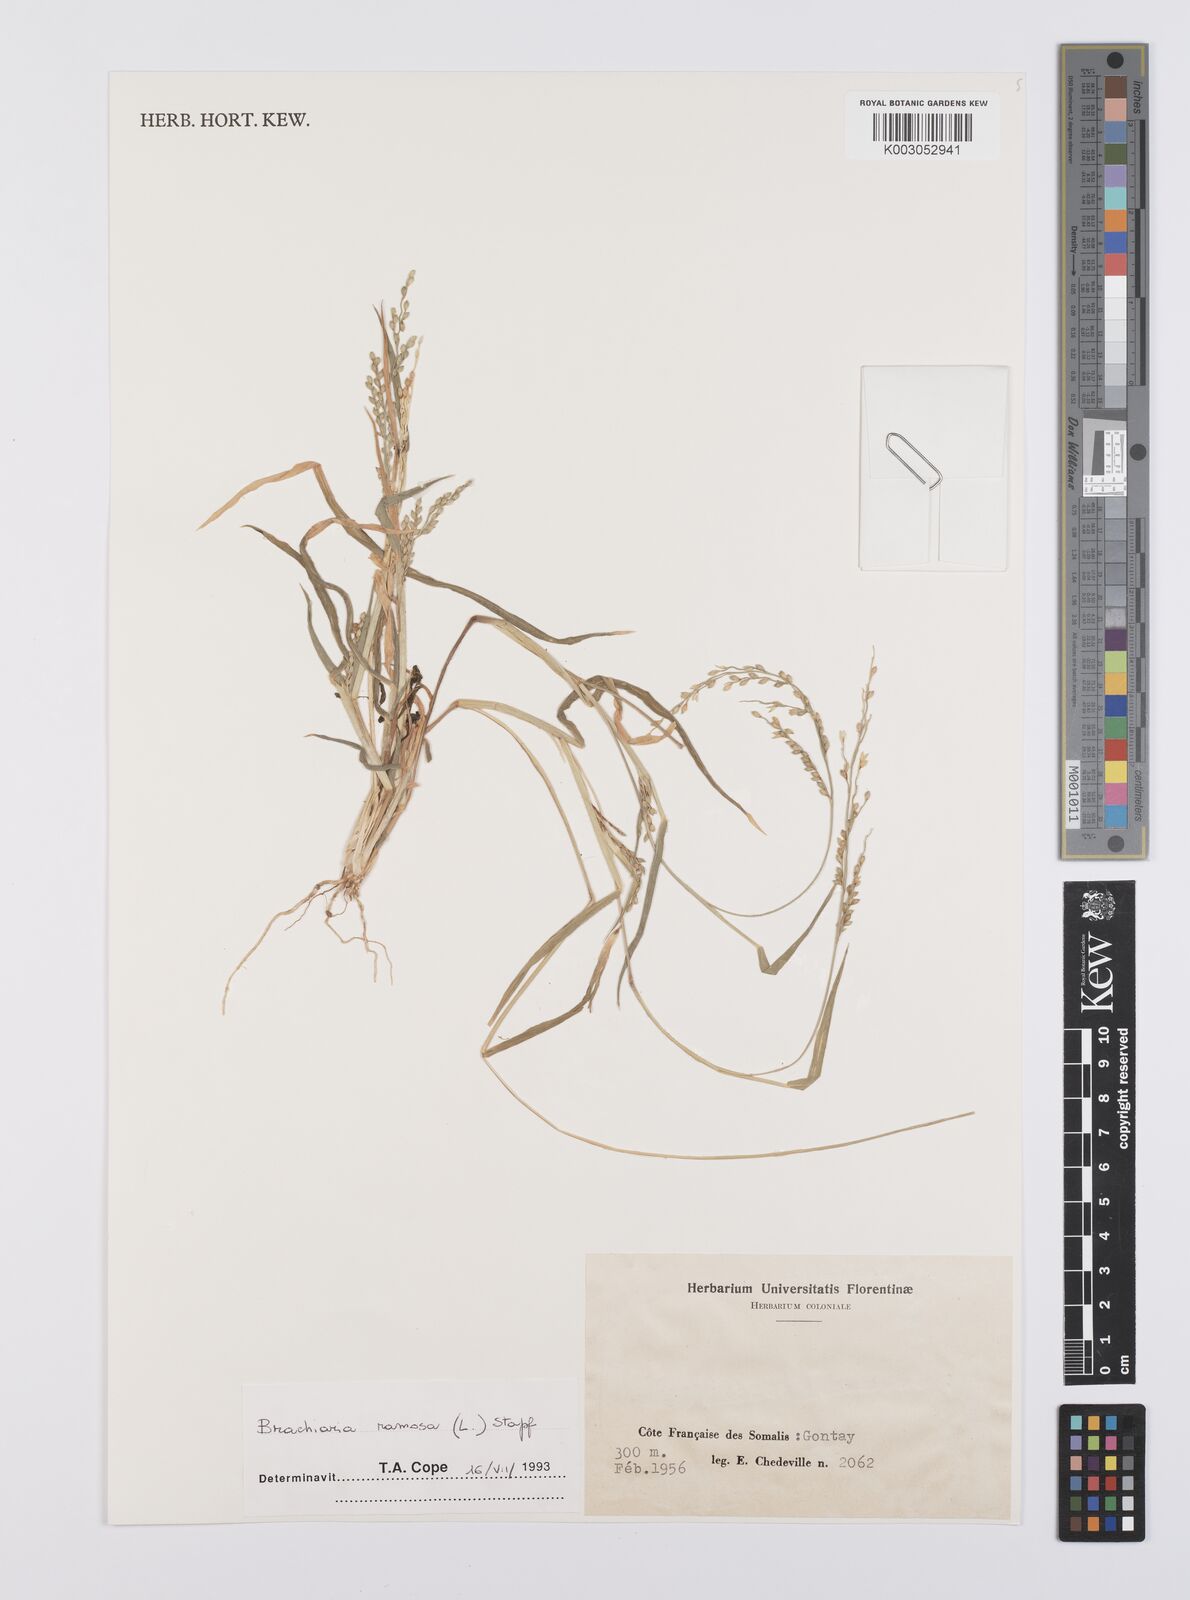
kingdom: Plantae
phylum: Tracheophyta
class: Liliopsida
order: Poales
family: Poaceae
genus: Urochloa
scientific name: Urochloa ramosa
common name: Browntop millet
